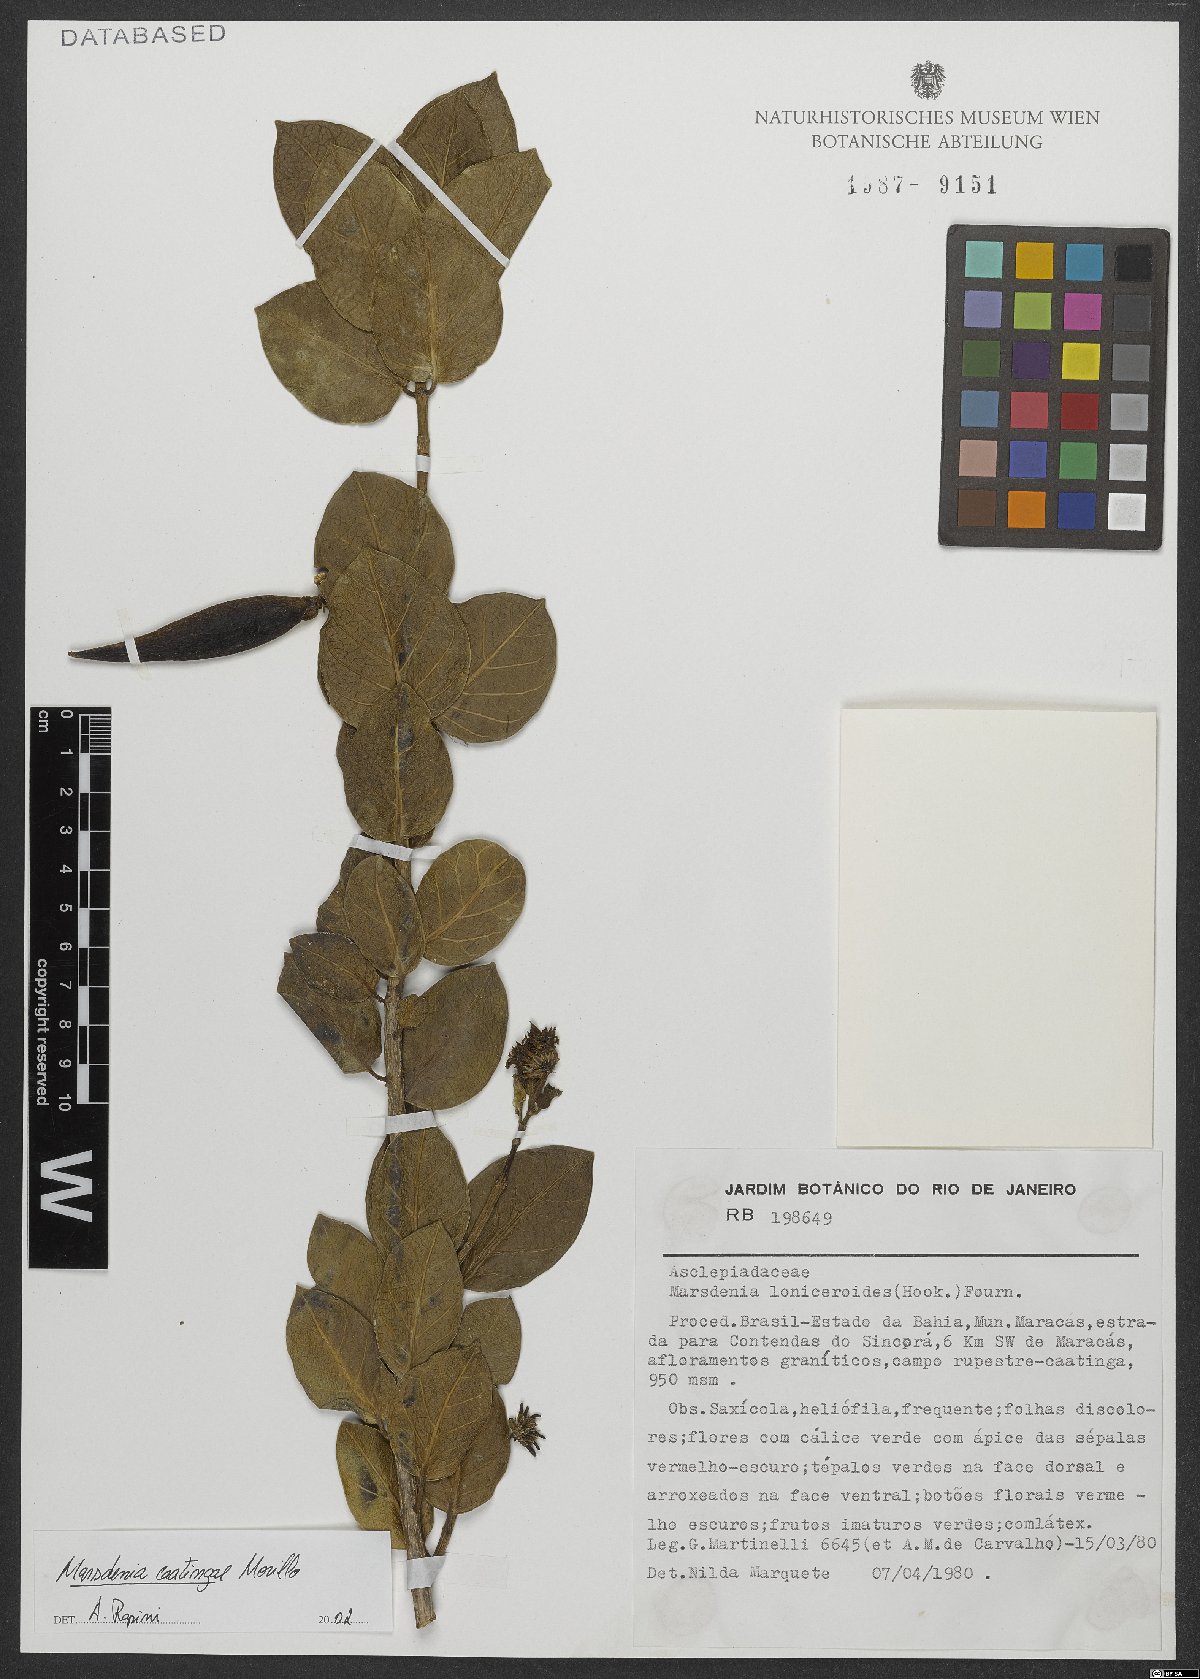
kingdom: Plantae
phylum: Tracheophyta
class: Magnoliopsida
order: Gentianales
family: Apocynaceae
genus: Ruehssia
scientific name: Ruehssia caatingae
